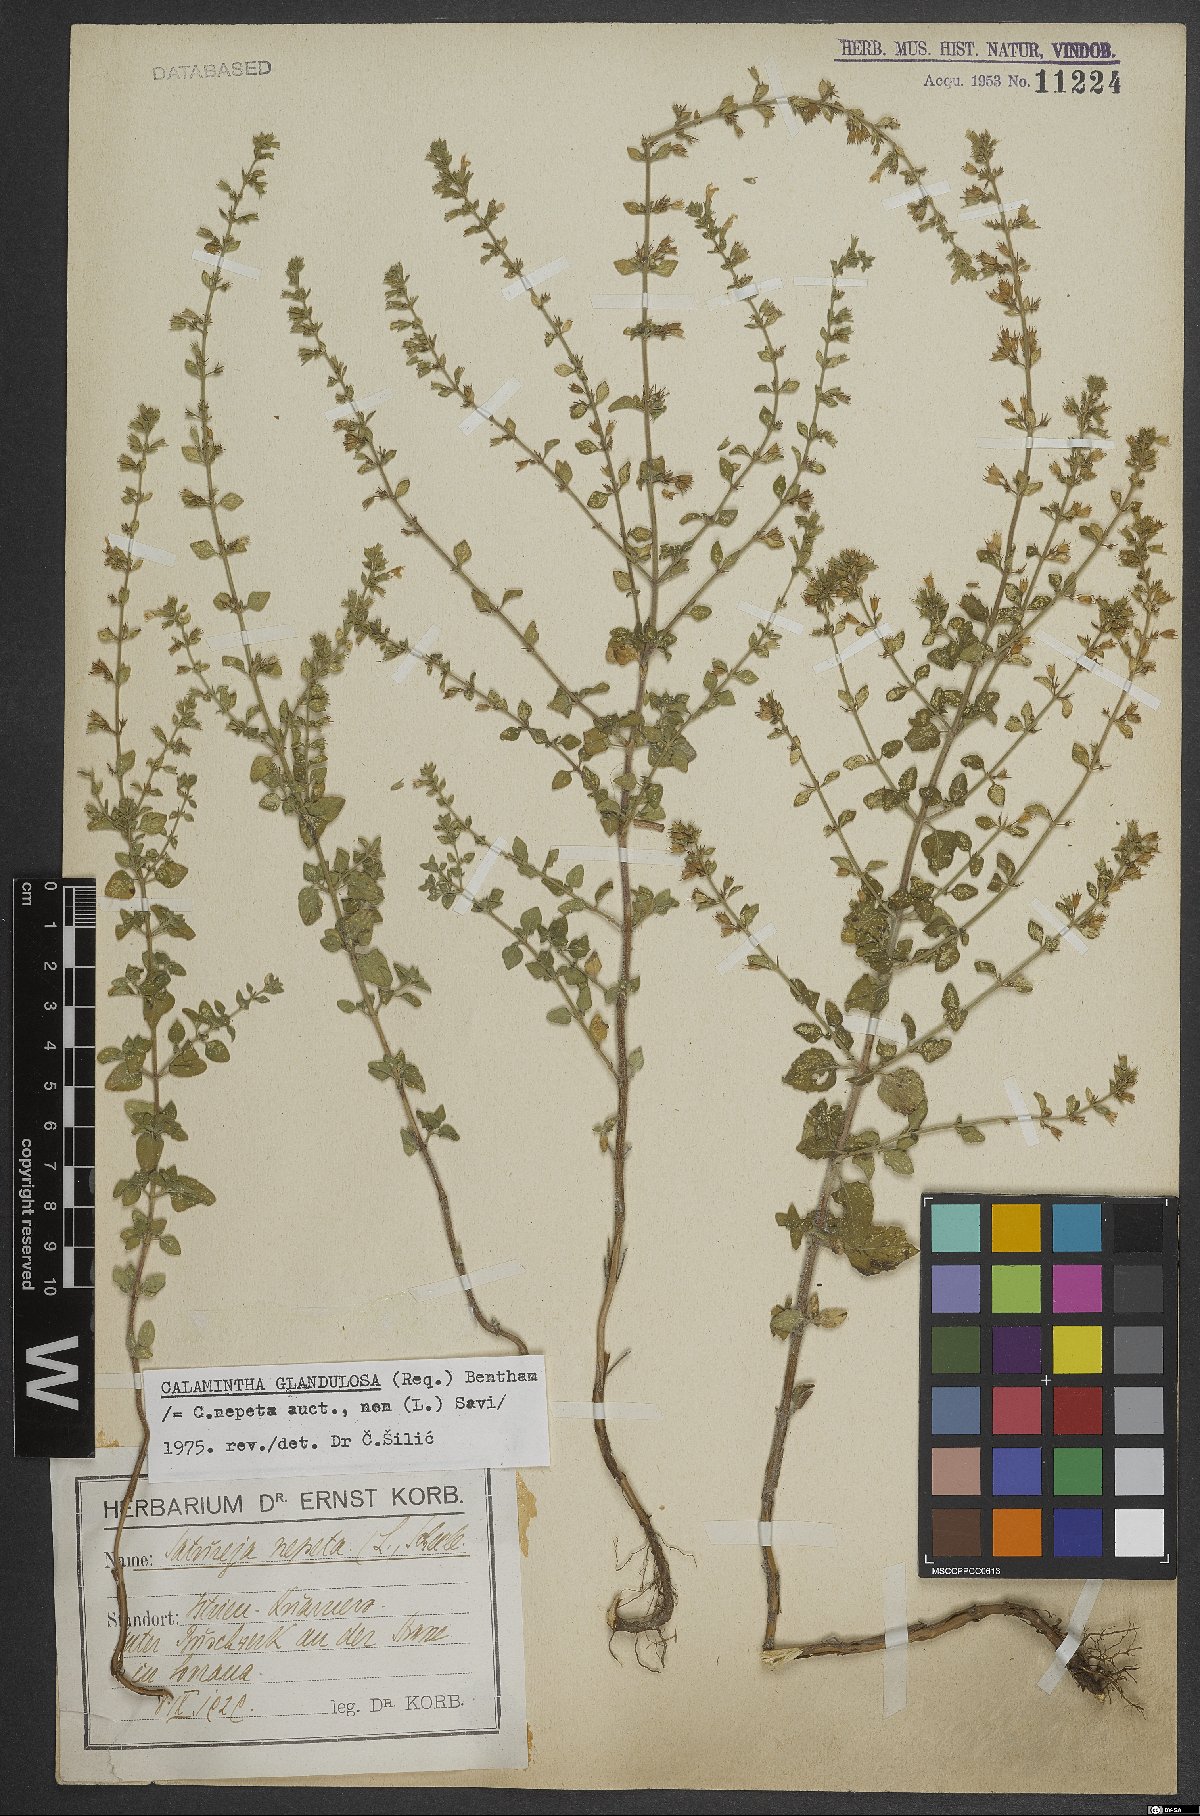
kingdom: Plantae
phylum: Tracheophyta
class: Magnoliopsida
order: Lamiales
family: Lamiaceae
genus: Clinopodium
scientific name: Clinopodium nepeta
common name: Lesser calamint
